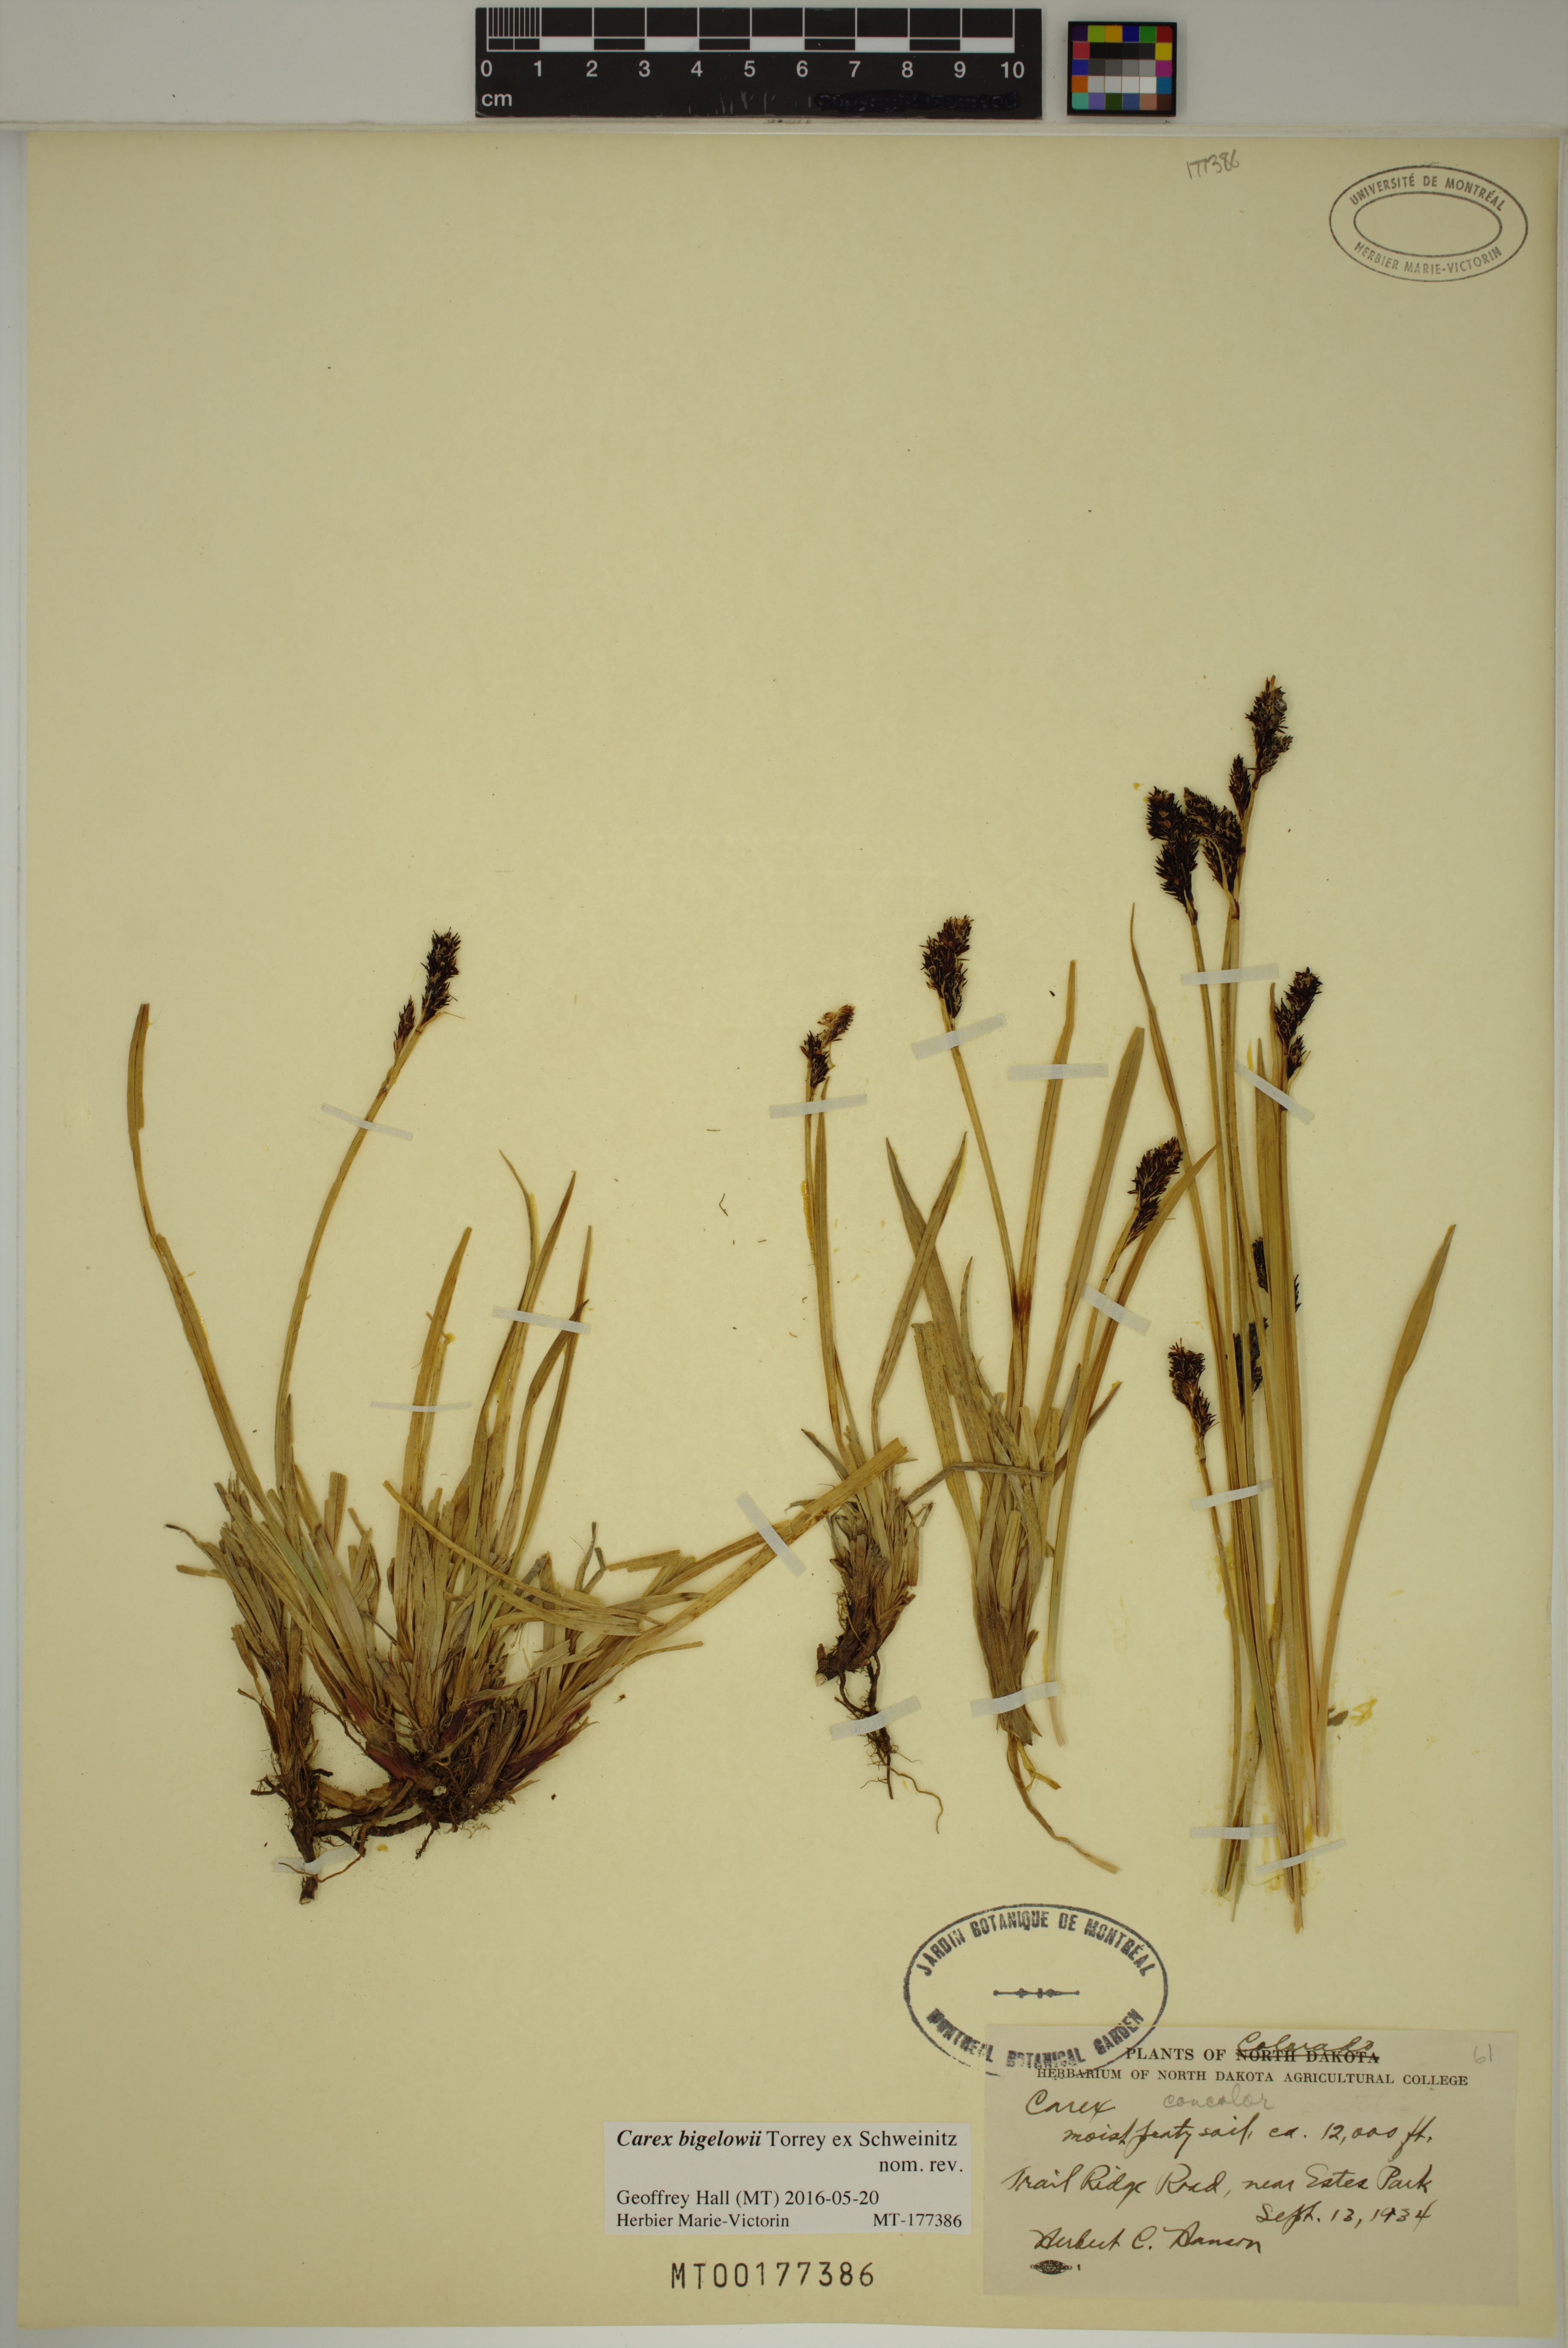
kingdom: Plantae
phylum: Tracheophyta
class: Liliopsida
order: Poales
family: Cyperaceae
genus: Carex
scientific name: Carex bigelowii
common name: Stiff sedge
